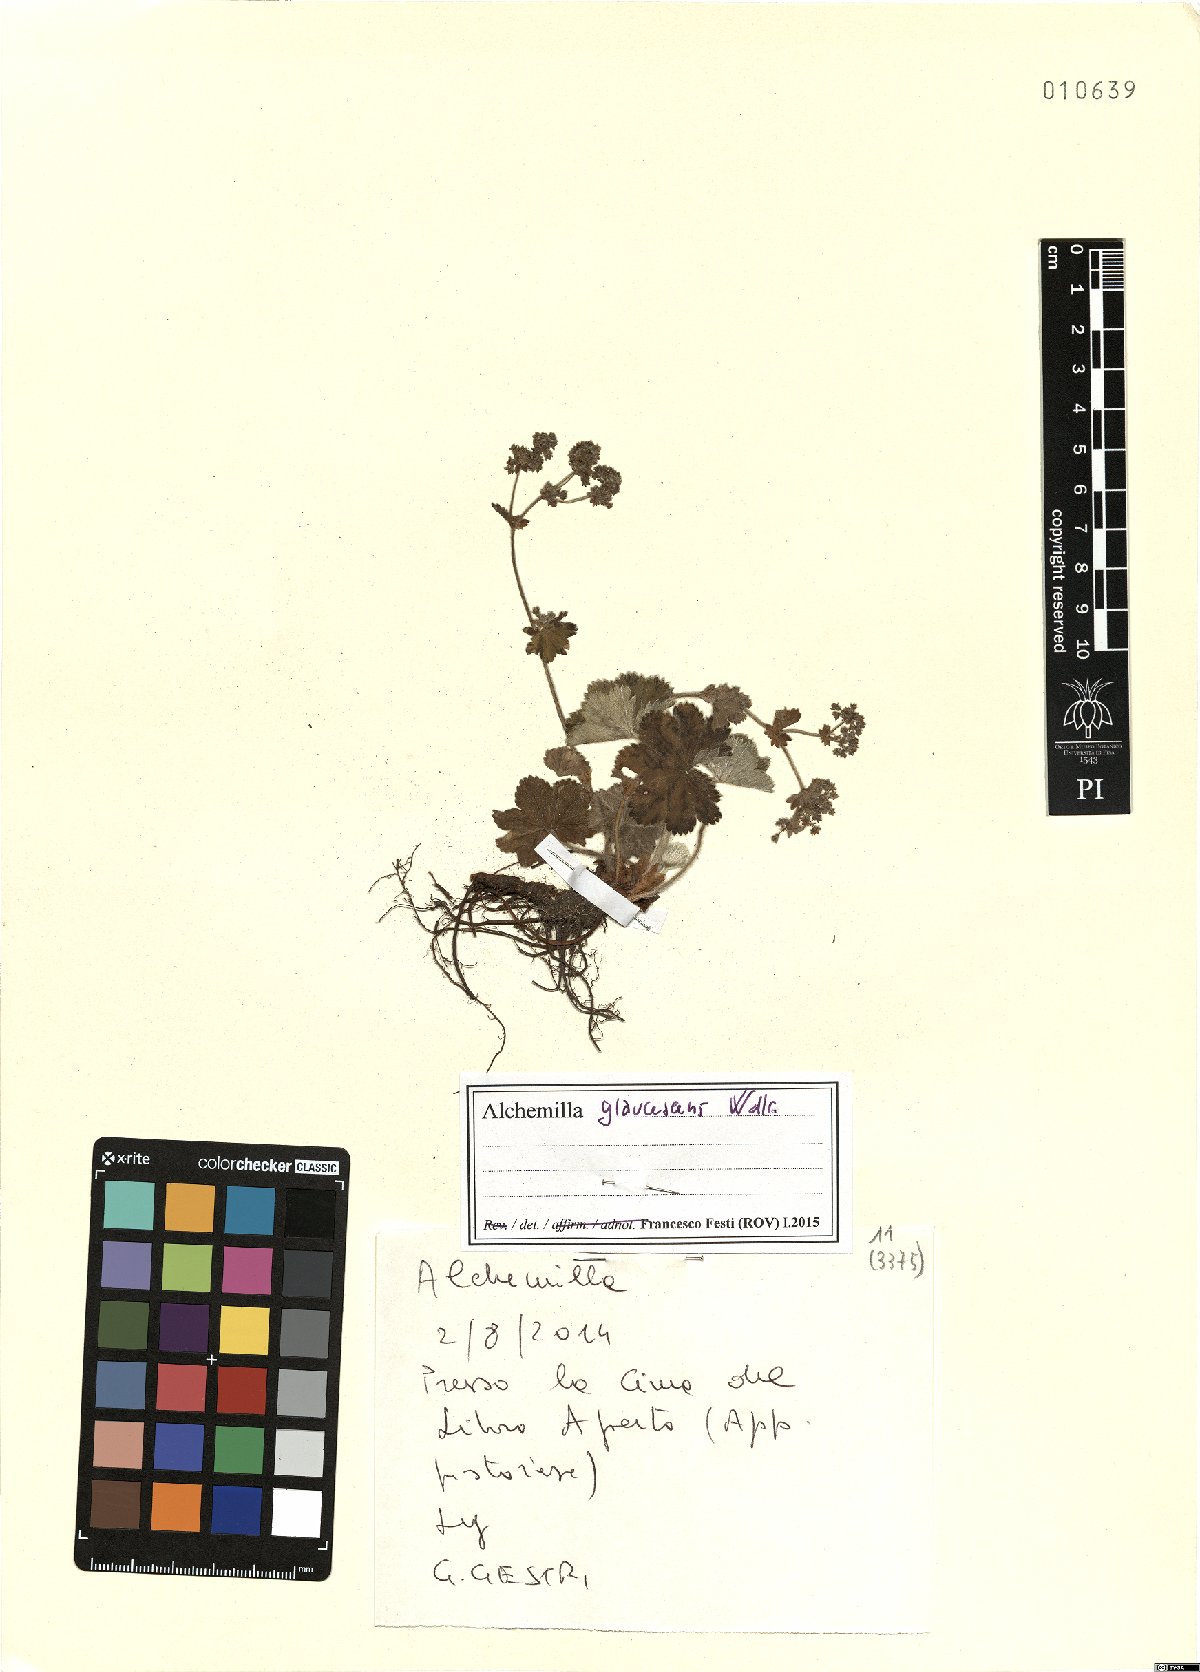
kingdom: Plantae
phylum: Tracheophyta
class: Magnoliopsida
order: Rosales
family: Rosaceae
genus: Alchemilla
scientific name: Alchemilla glaucescens
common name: Silky lady's mantle
